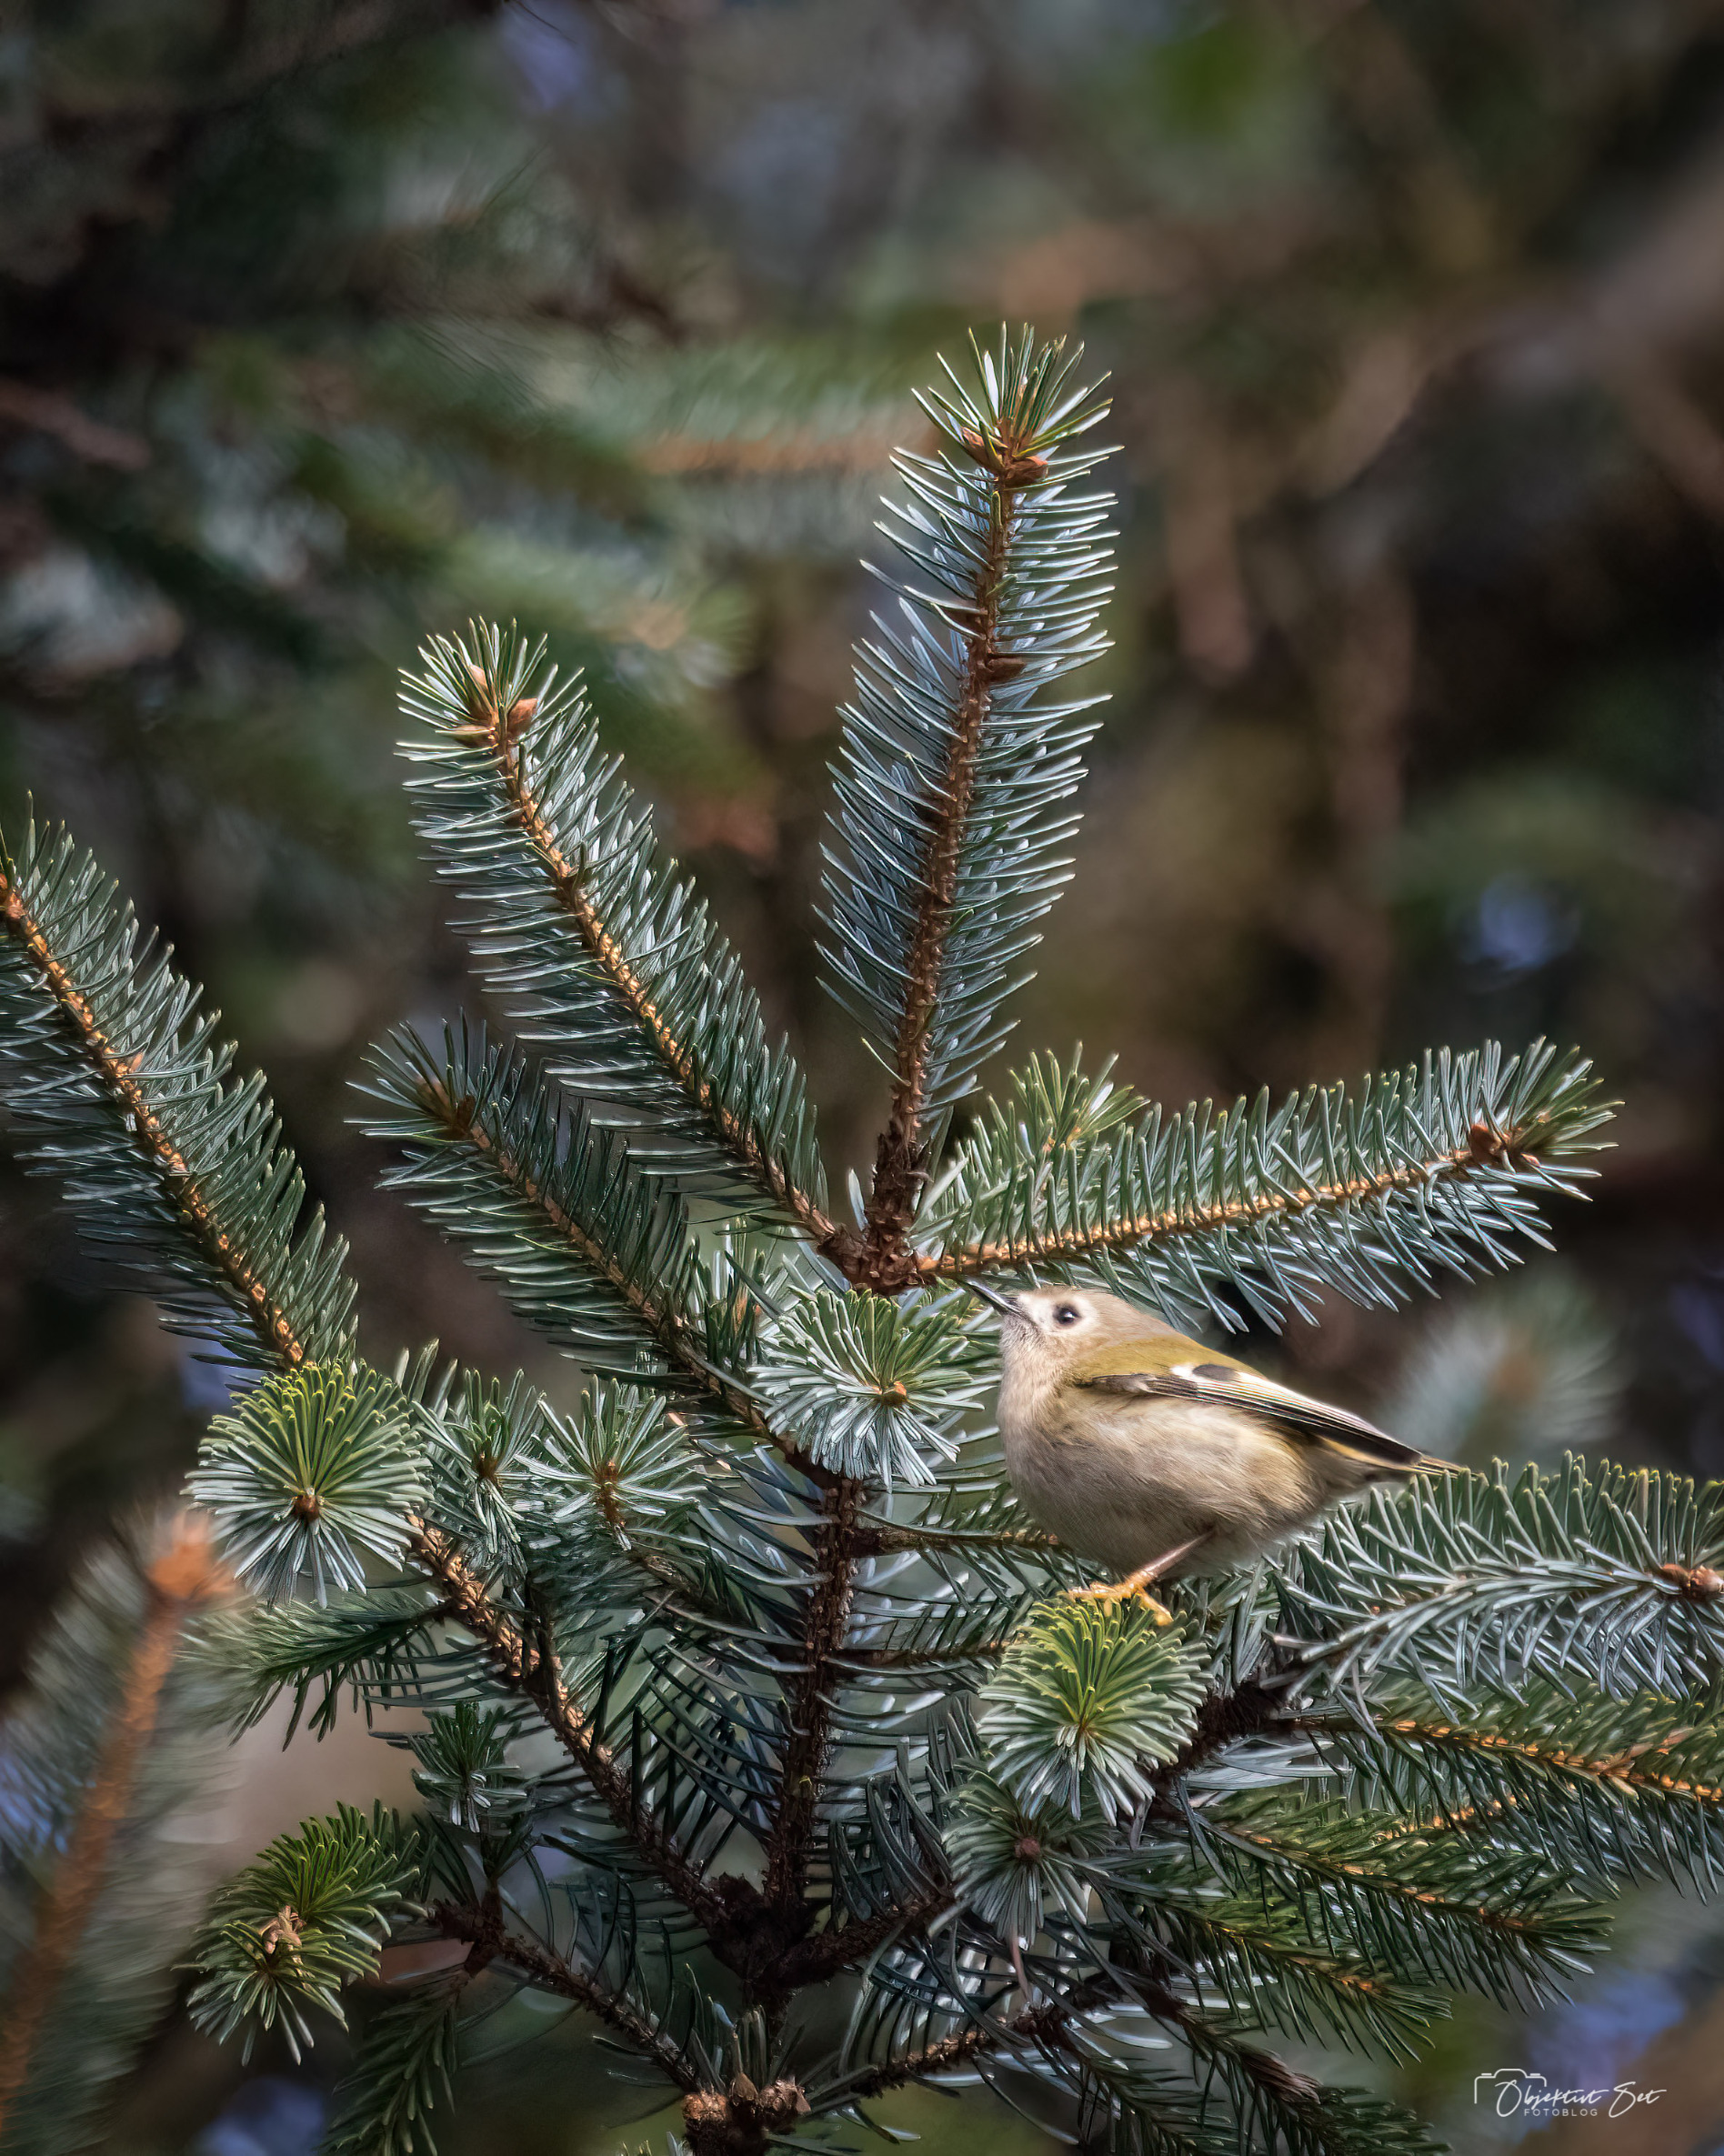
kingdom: Animalia
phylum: Chordata
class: Aves
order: Passeriformes
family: Regulidae
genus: Regulus
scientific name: Regulus regulus
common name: Fuglekonge
